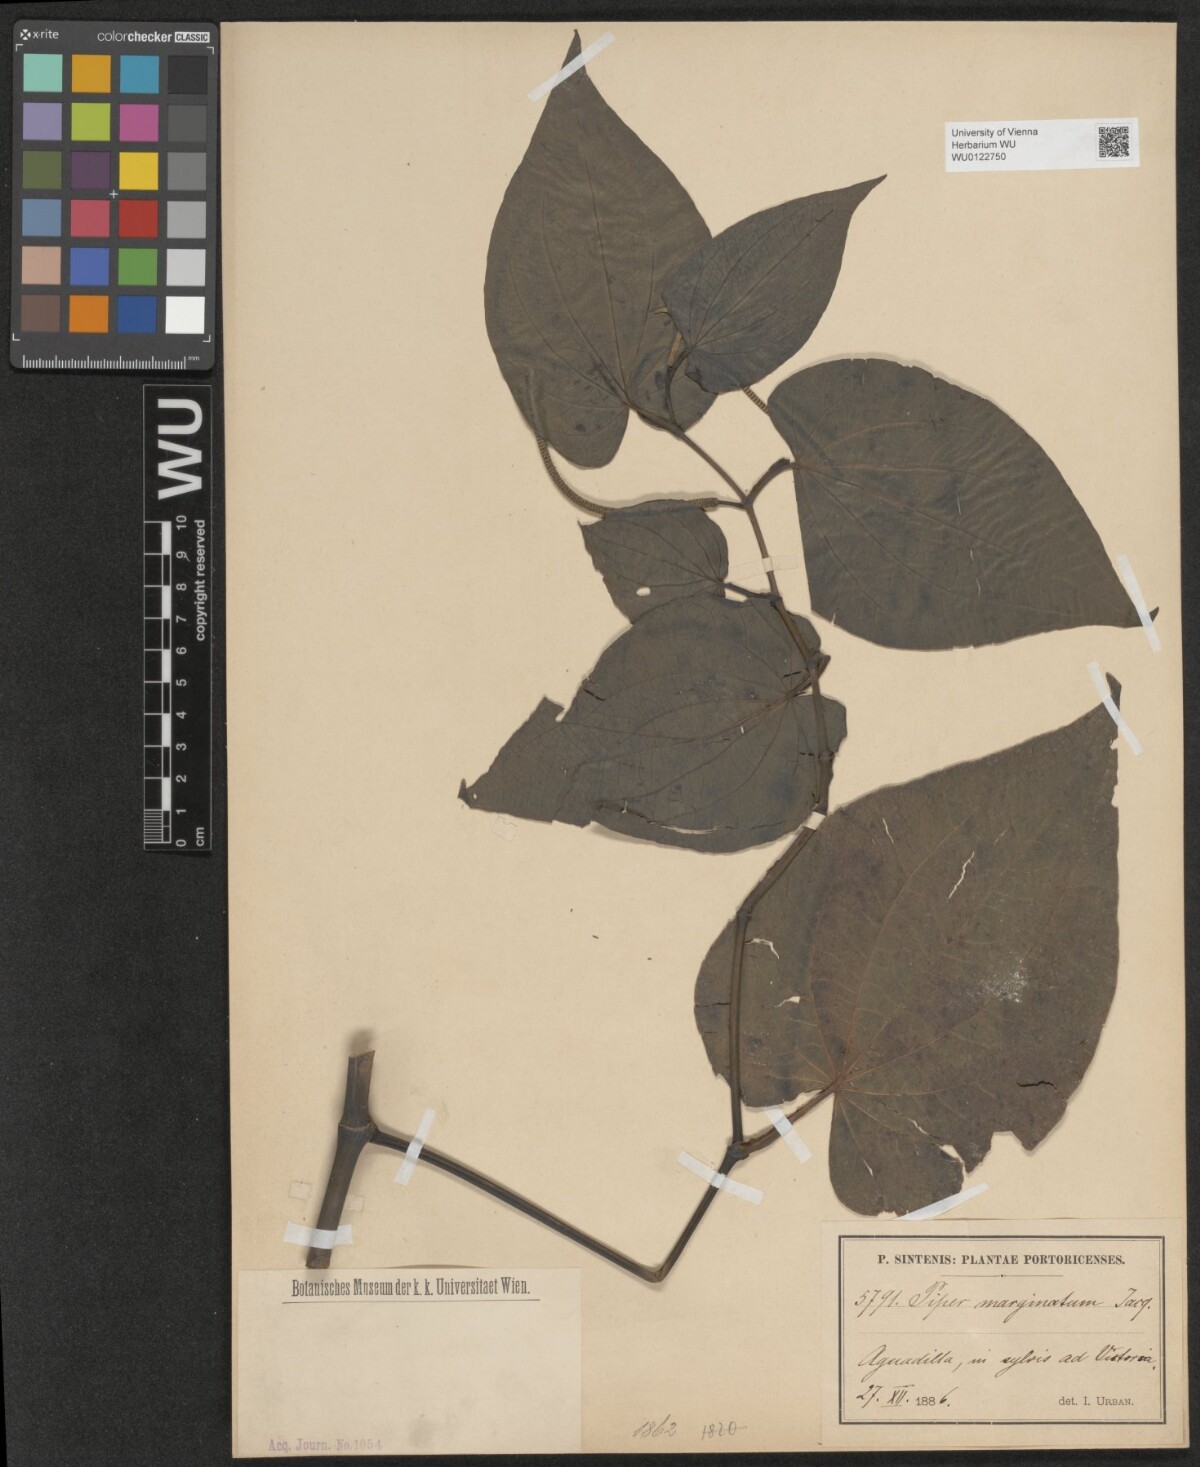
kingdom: Plantae
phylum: Tracheophyta
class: Magnoliopsida
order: Piperales
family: Piperaceae
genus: Piper
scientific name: Piper marginatum
